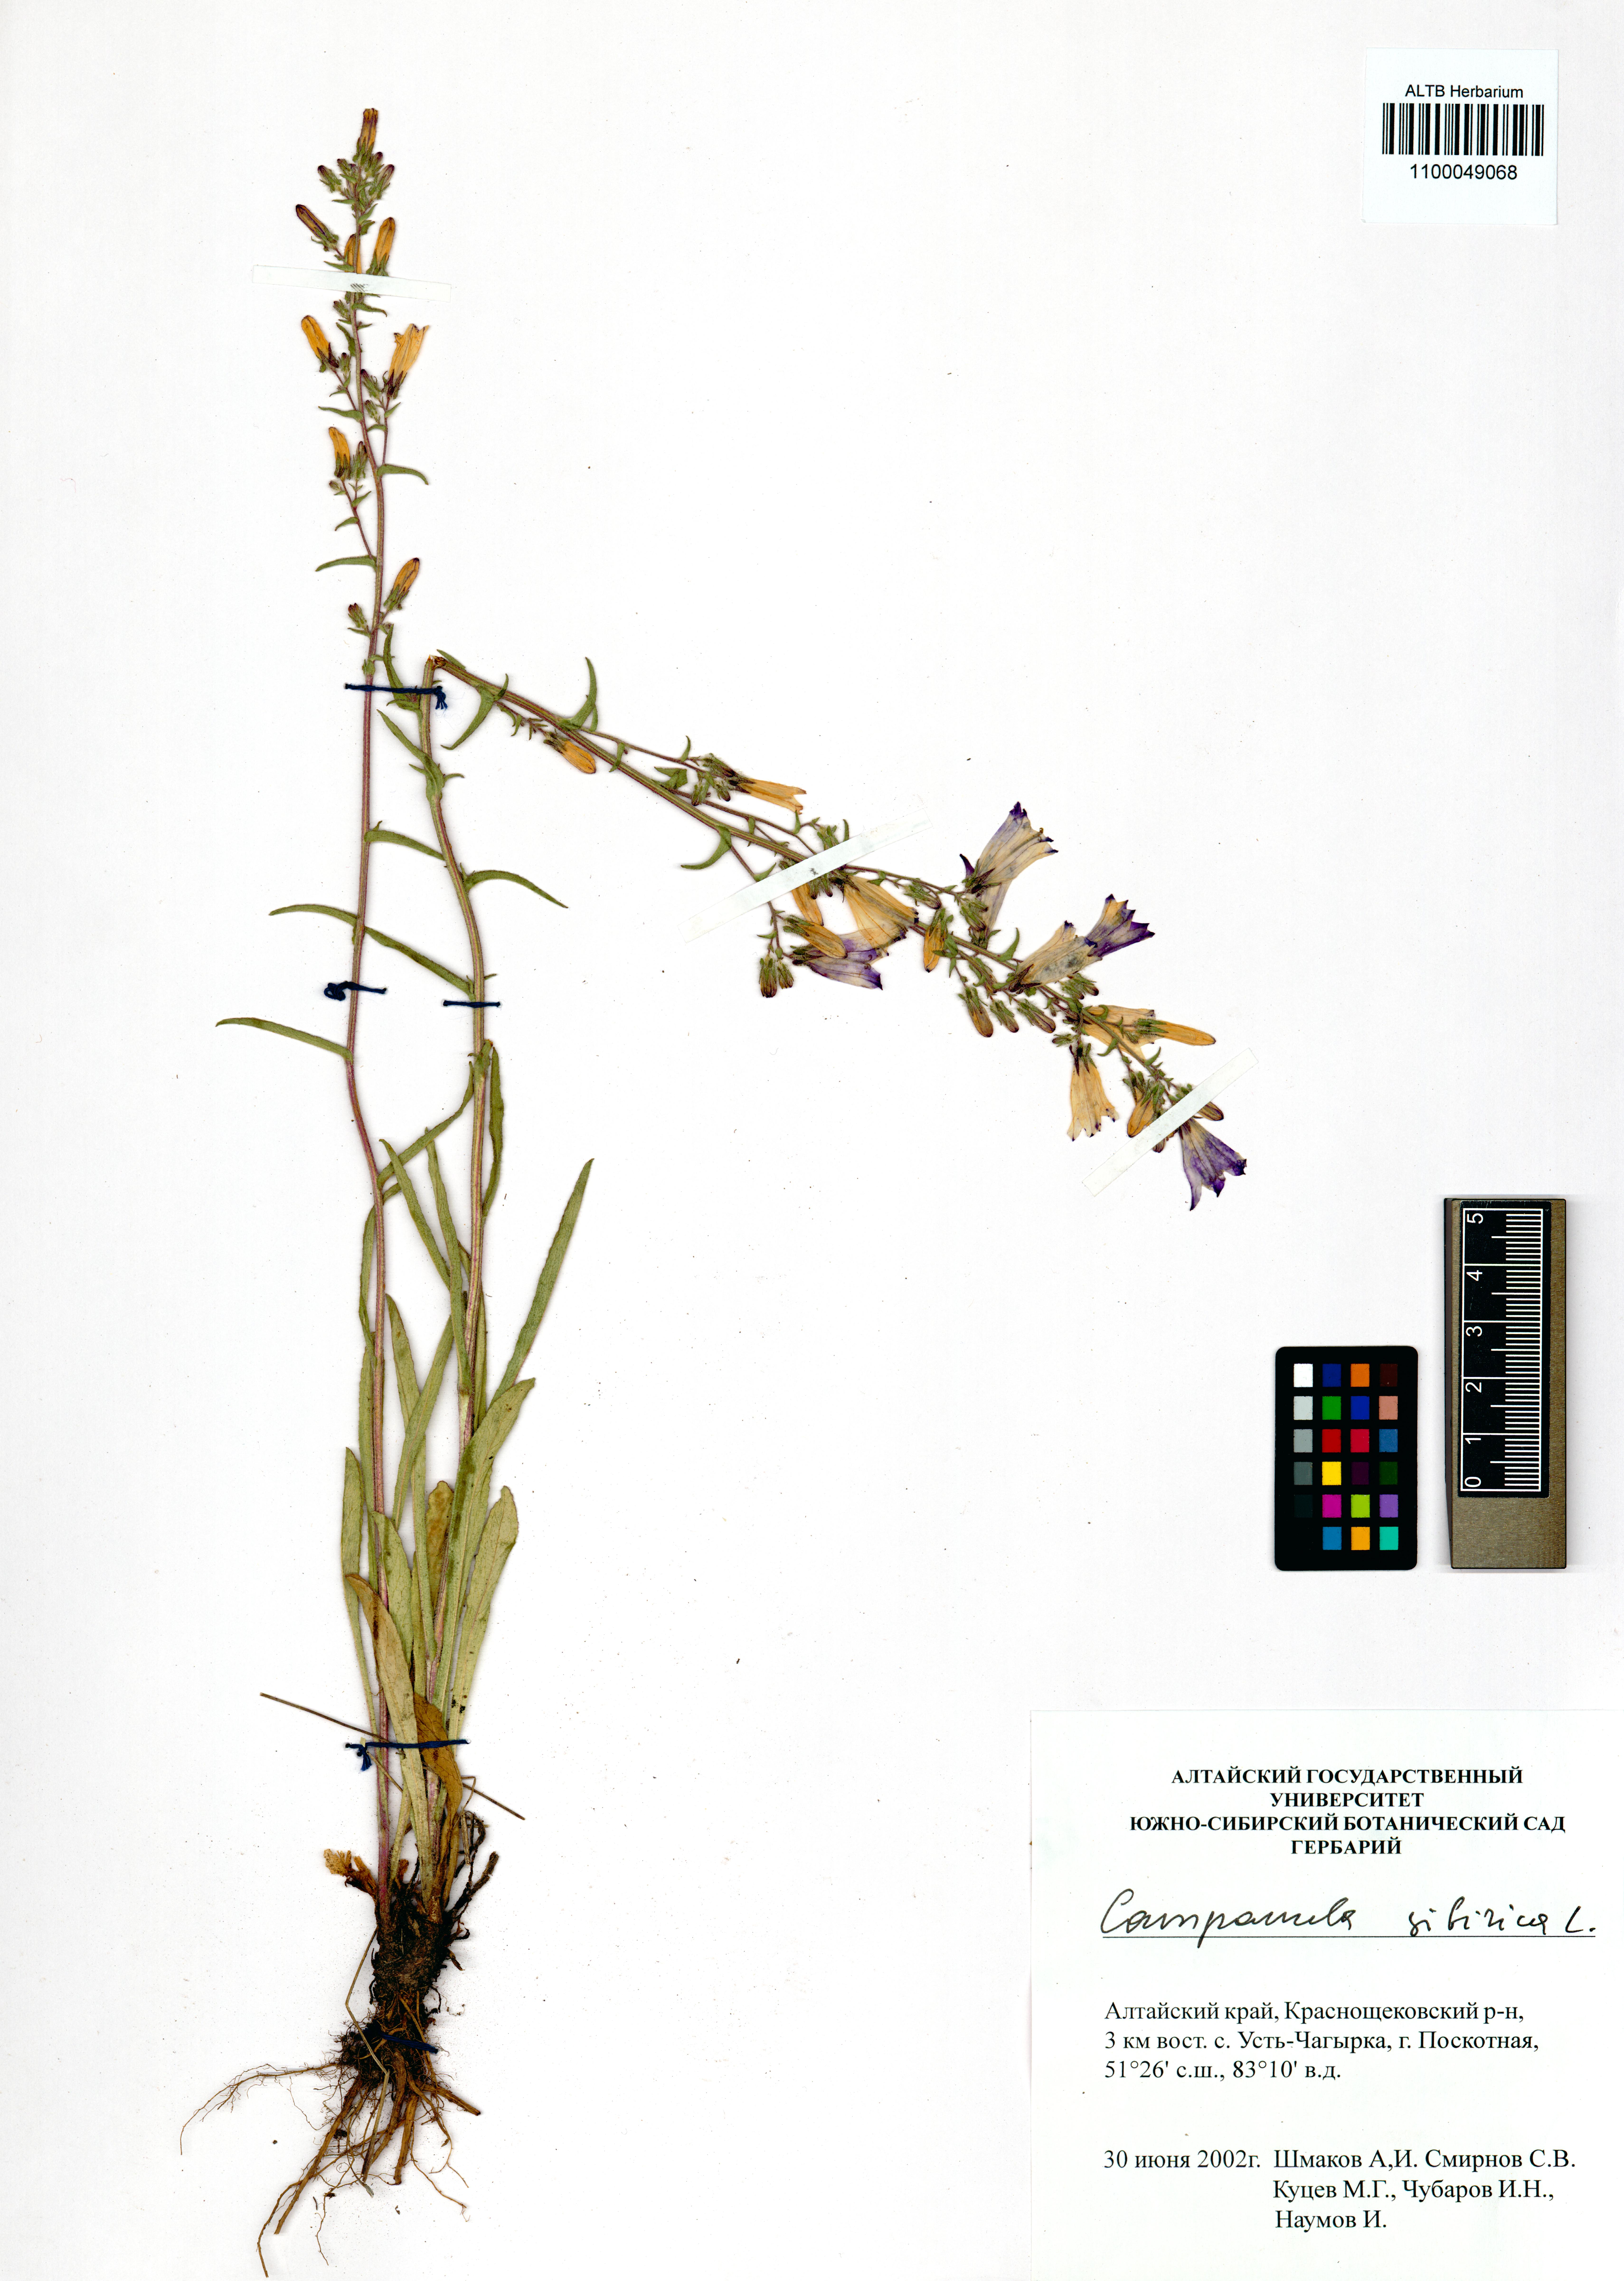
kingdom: Plantae
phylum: Tracheophyta
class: Magnoliopsida
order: Asterales
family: Campanulaceae
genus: Campanula
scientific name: Campanula sibirica
